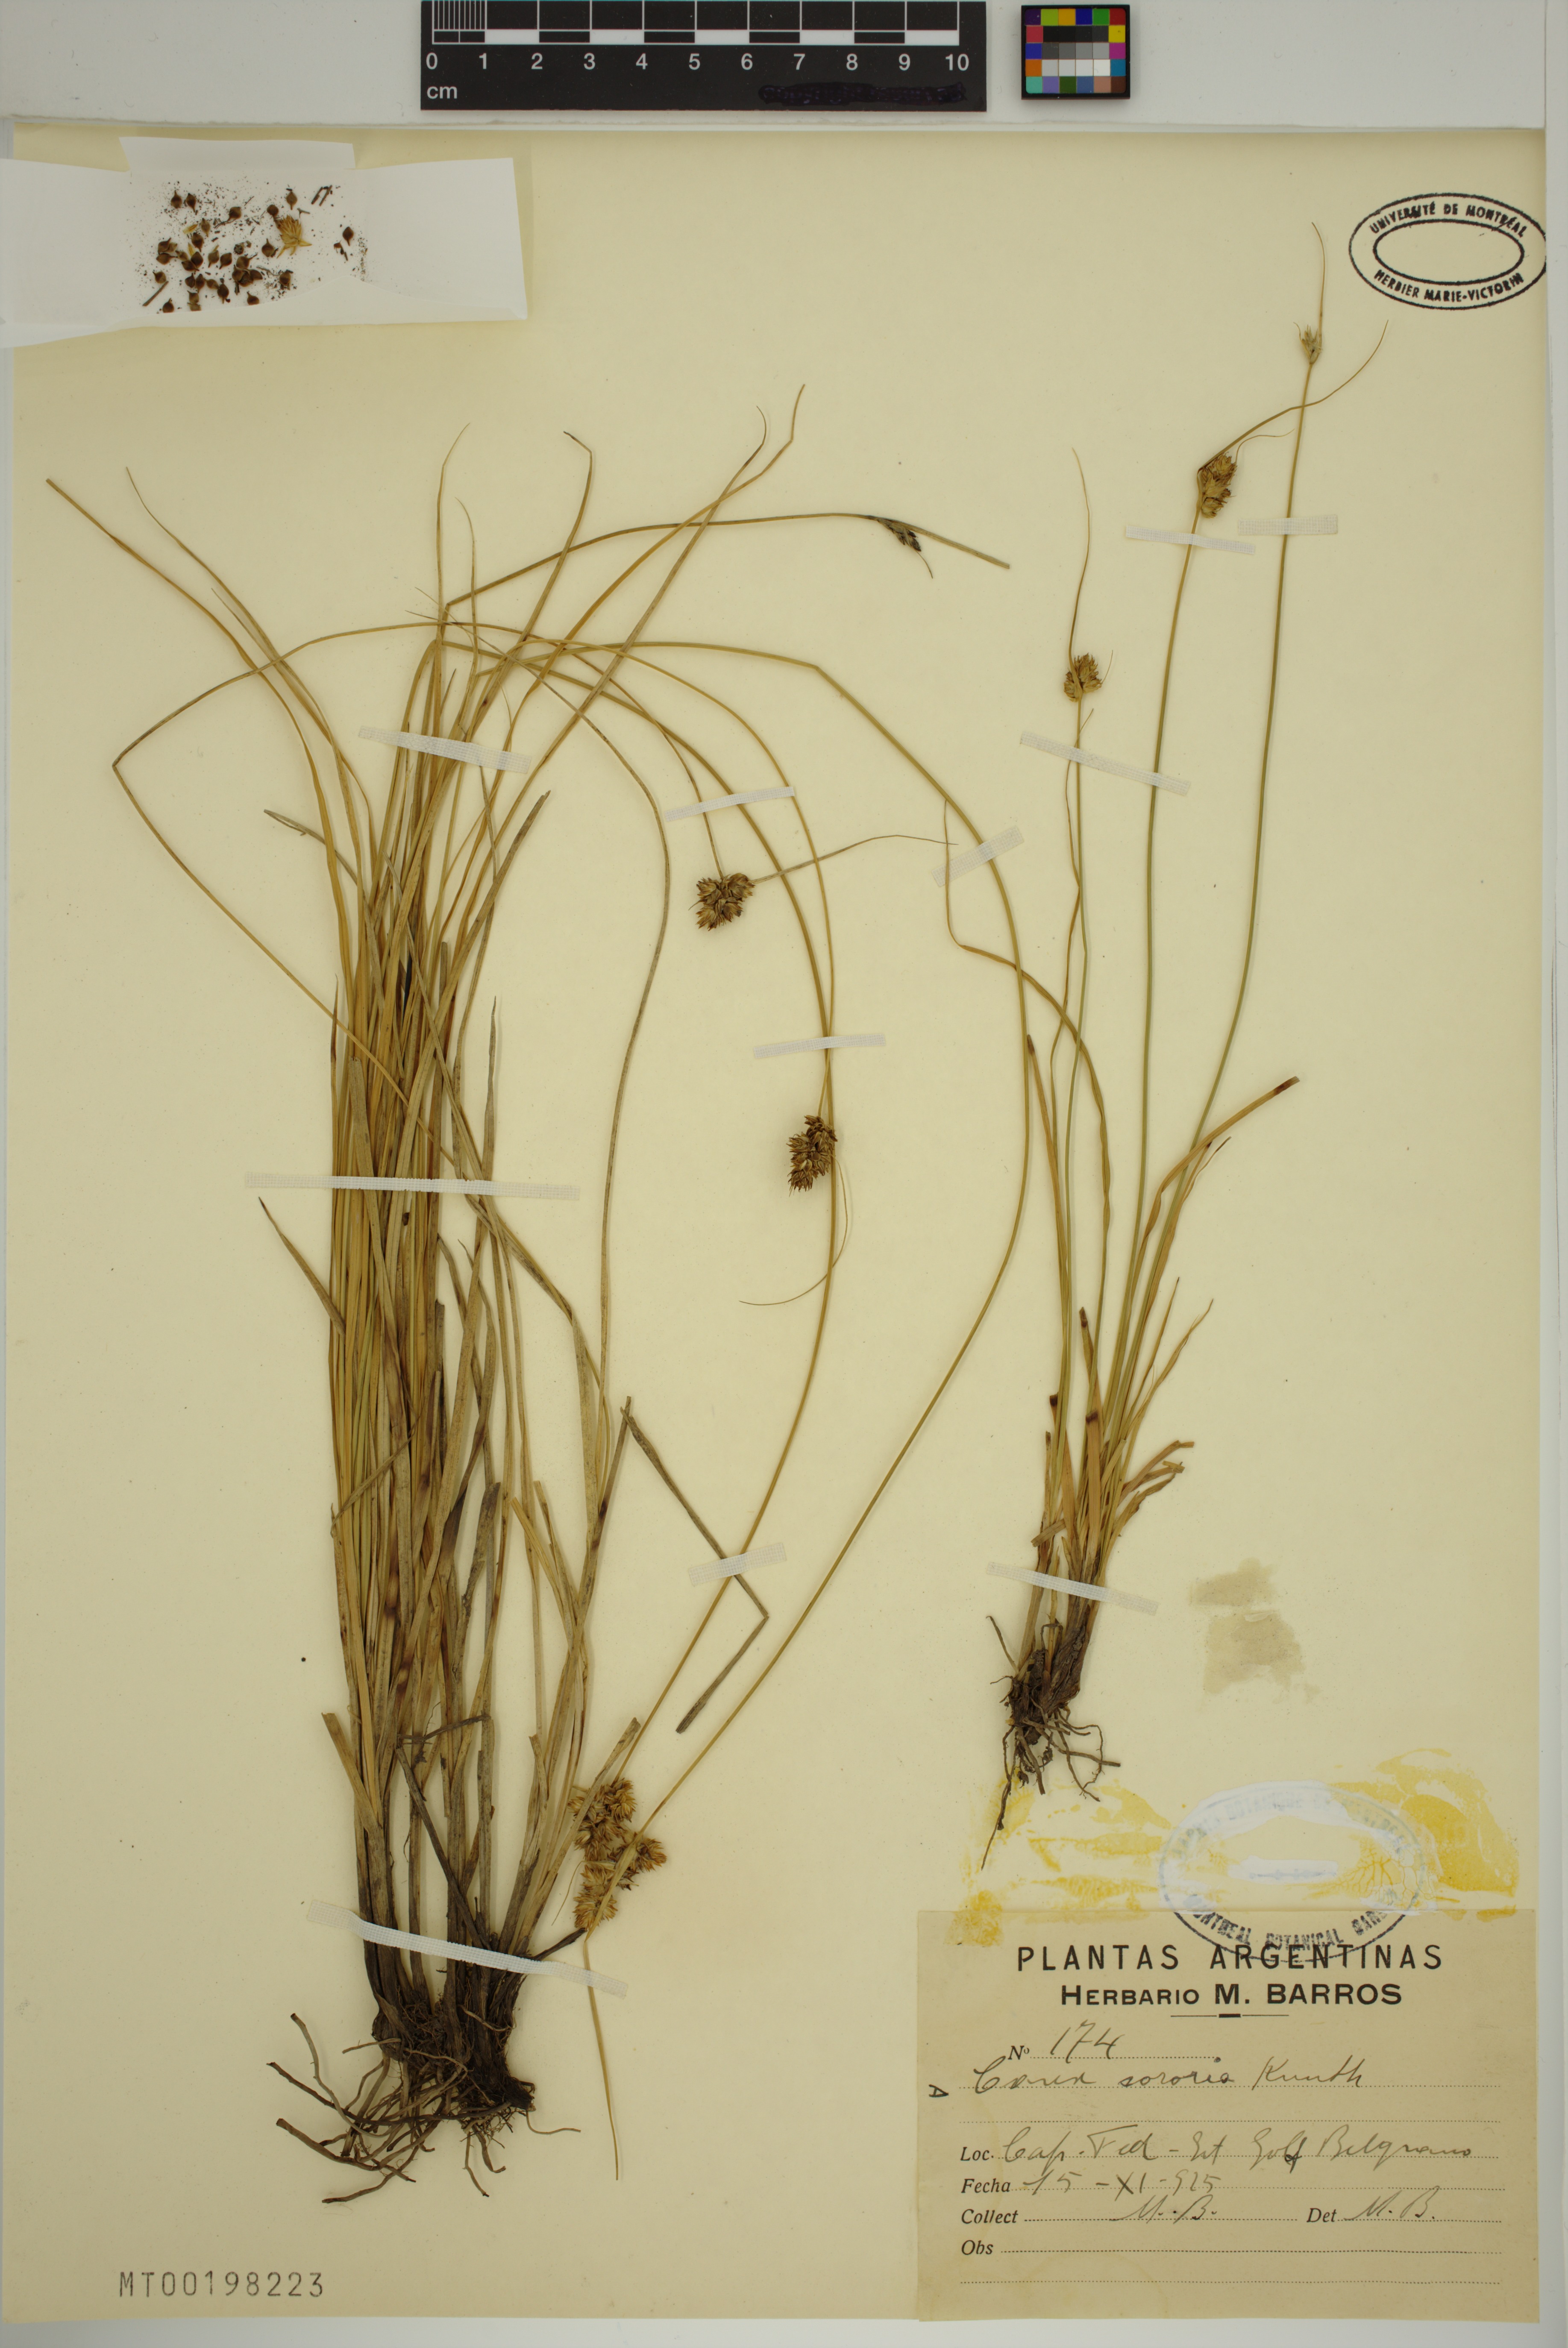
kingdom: Plantae
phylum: Tracheophyta
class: Liliopsida
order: Poales
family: Cyperaceae
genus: Carex
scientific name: Carex sororia
